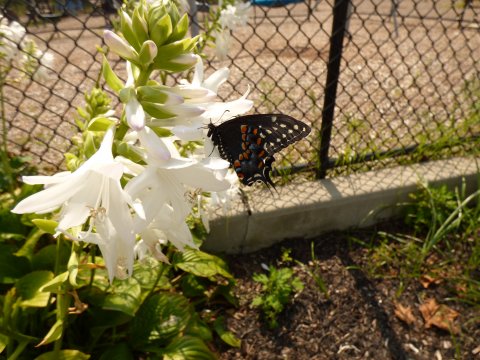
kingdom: Animalia
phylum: Arthropoda
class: Insecta
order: Lepidoptera
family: Papilionidae
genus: Papilio
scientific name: Papilio polyxenes
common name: Black Swallowtail
